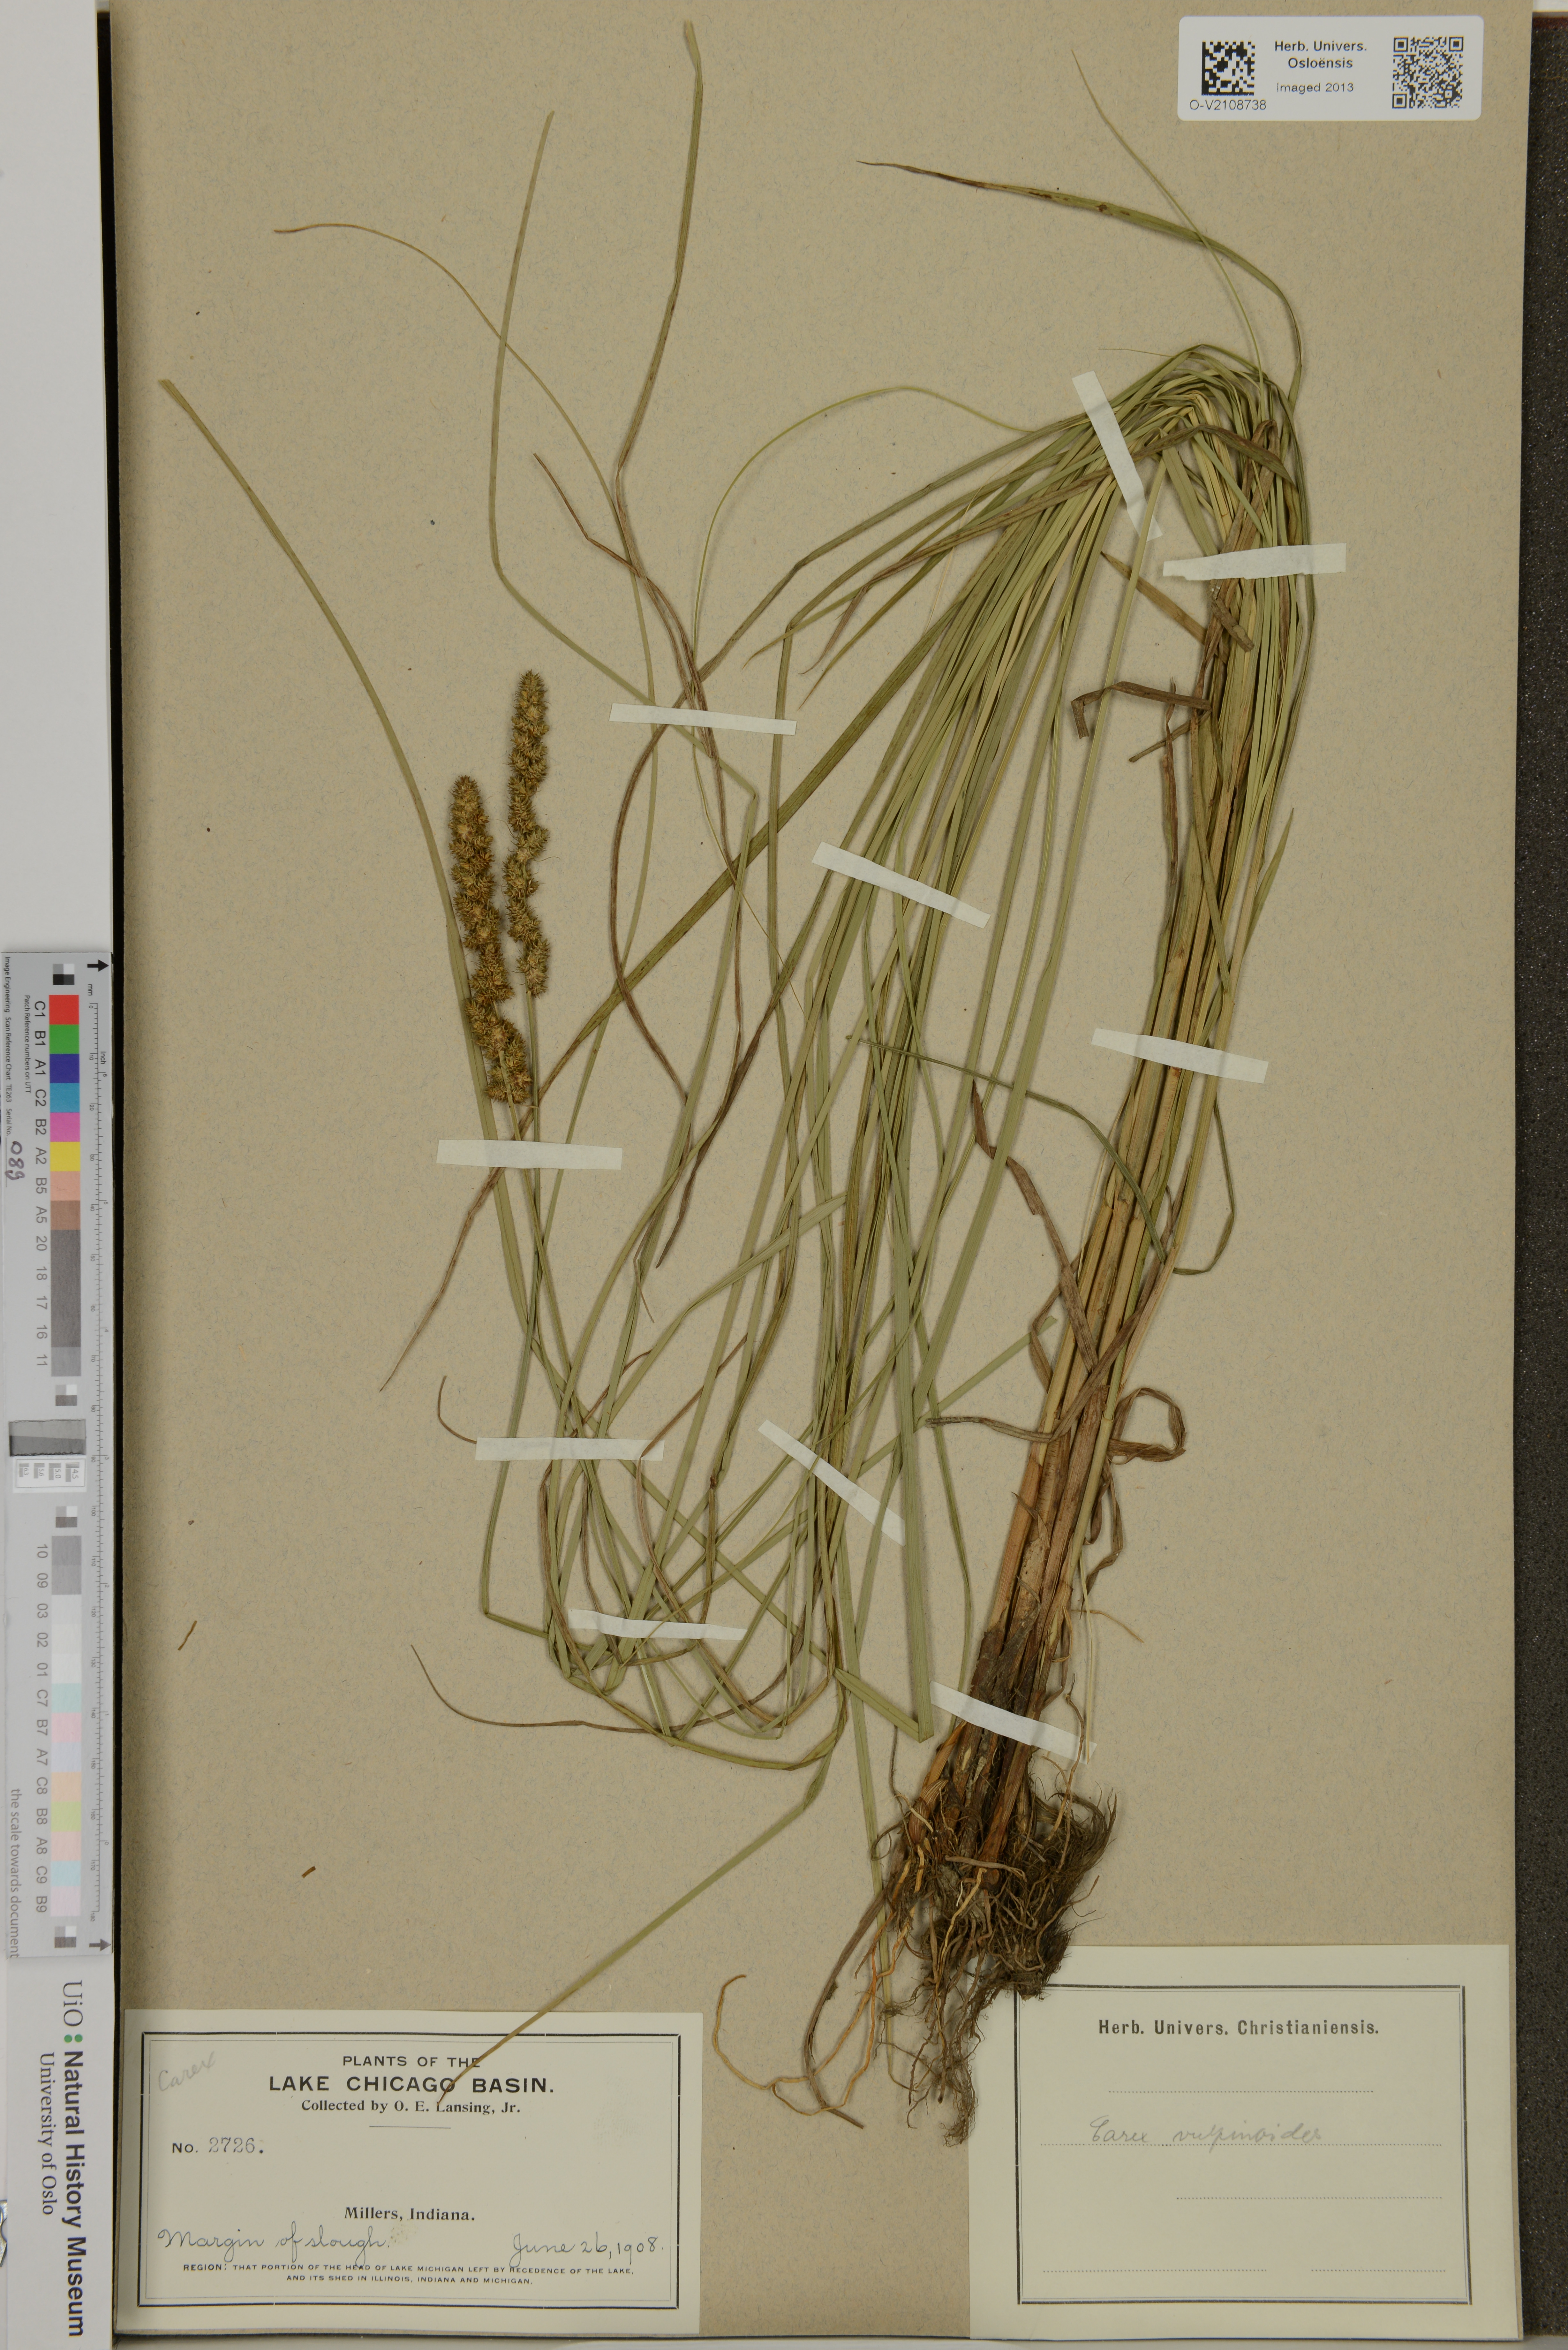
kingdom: Plantae
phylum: Tracheophyta
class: Liliopsida
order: Poales
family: Cyperaceae
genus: Carex
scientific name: Carex
